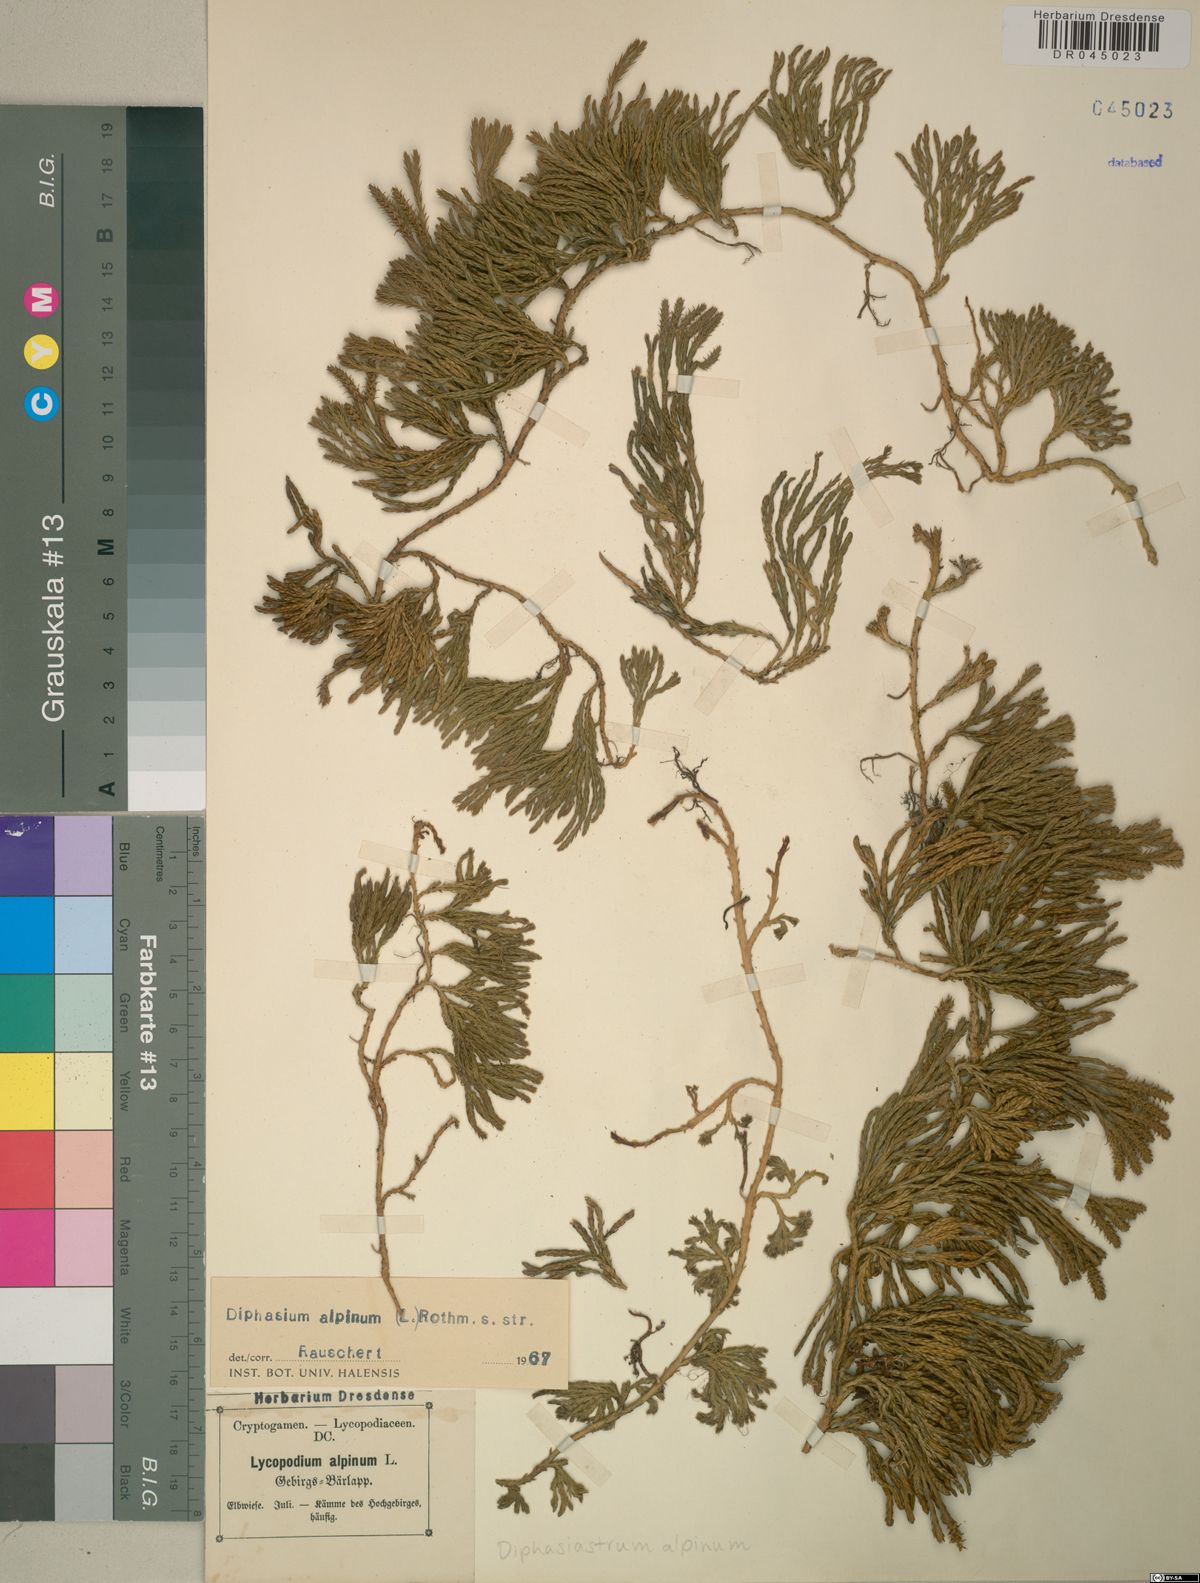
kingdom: Plantae
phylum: Tracheophyta
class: Lycopodiopsida
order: Lycopodiales
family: Lycopodiaceae
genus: Diphasiastrum
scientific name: Diphasiastrum alpinum
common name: Alpine clubmoss
